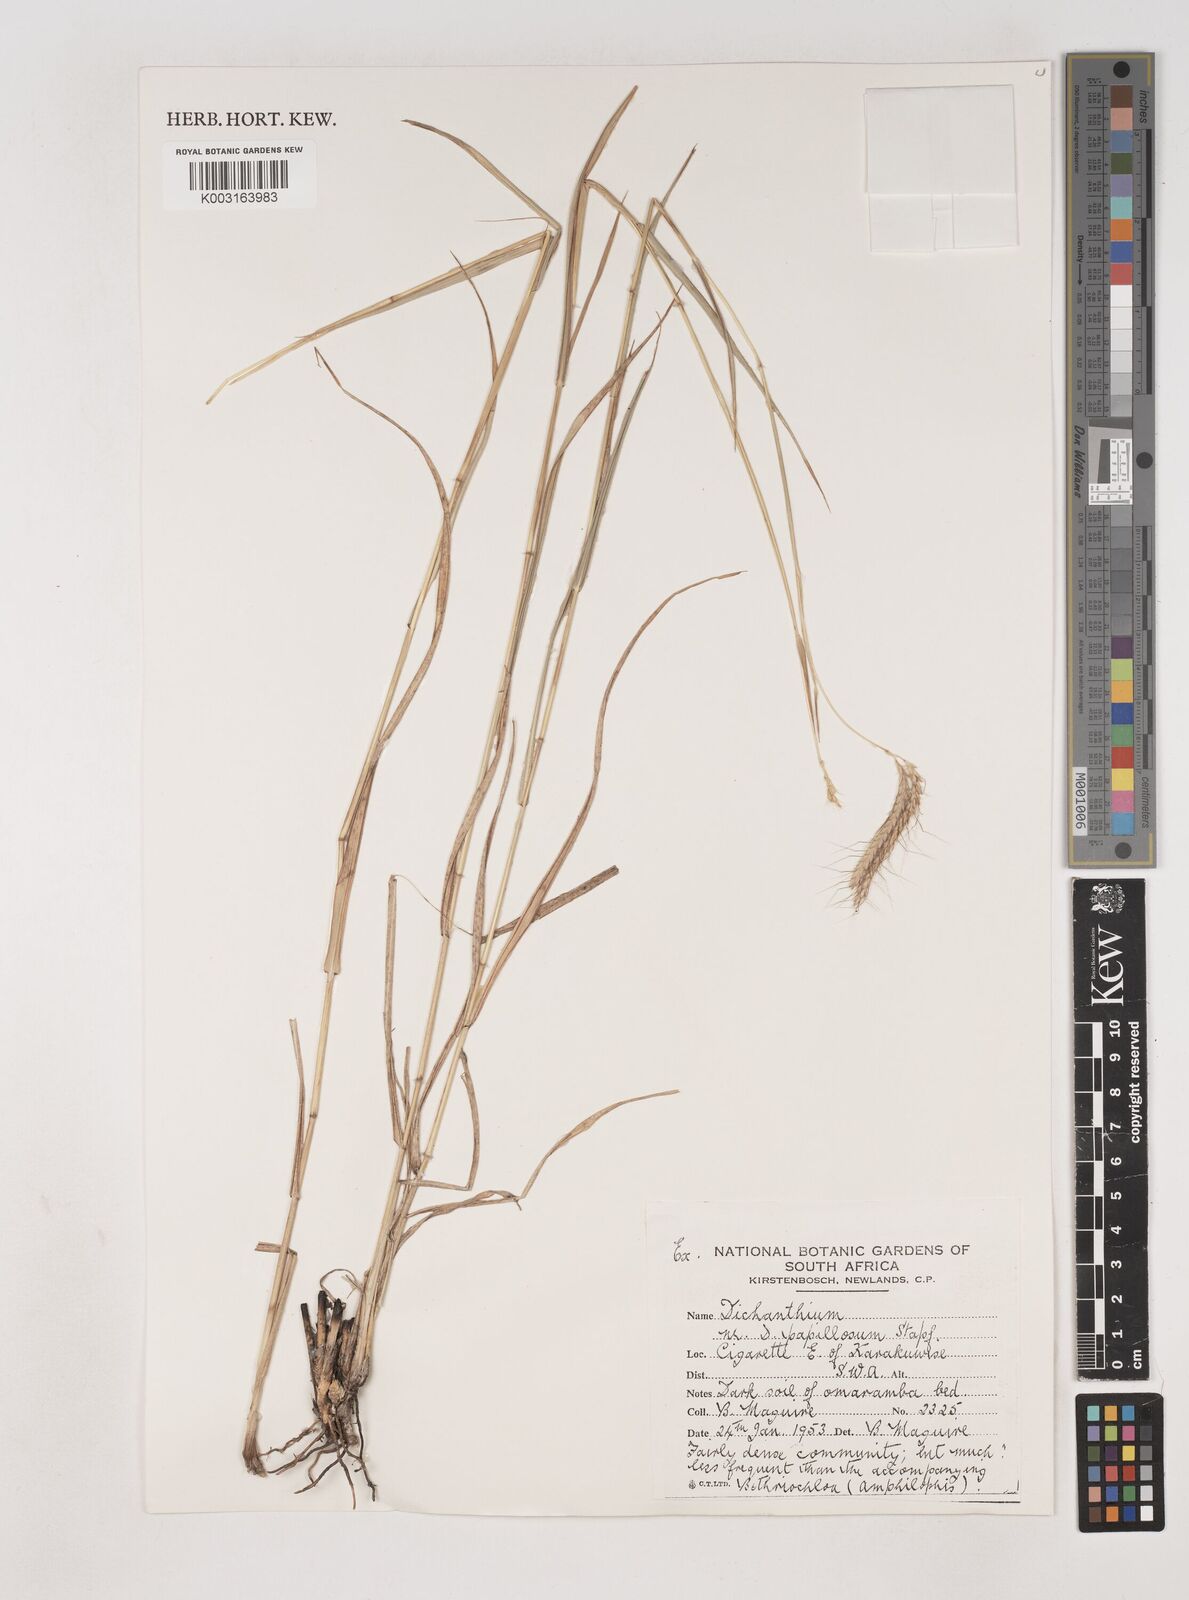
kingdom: Plantae
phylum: Tracheophyta
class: Liliopsida
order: Poales
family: Poaceae
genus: Dichanthium
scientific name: Dichanthium annulatum
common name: Kleberg's bluestem
